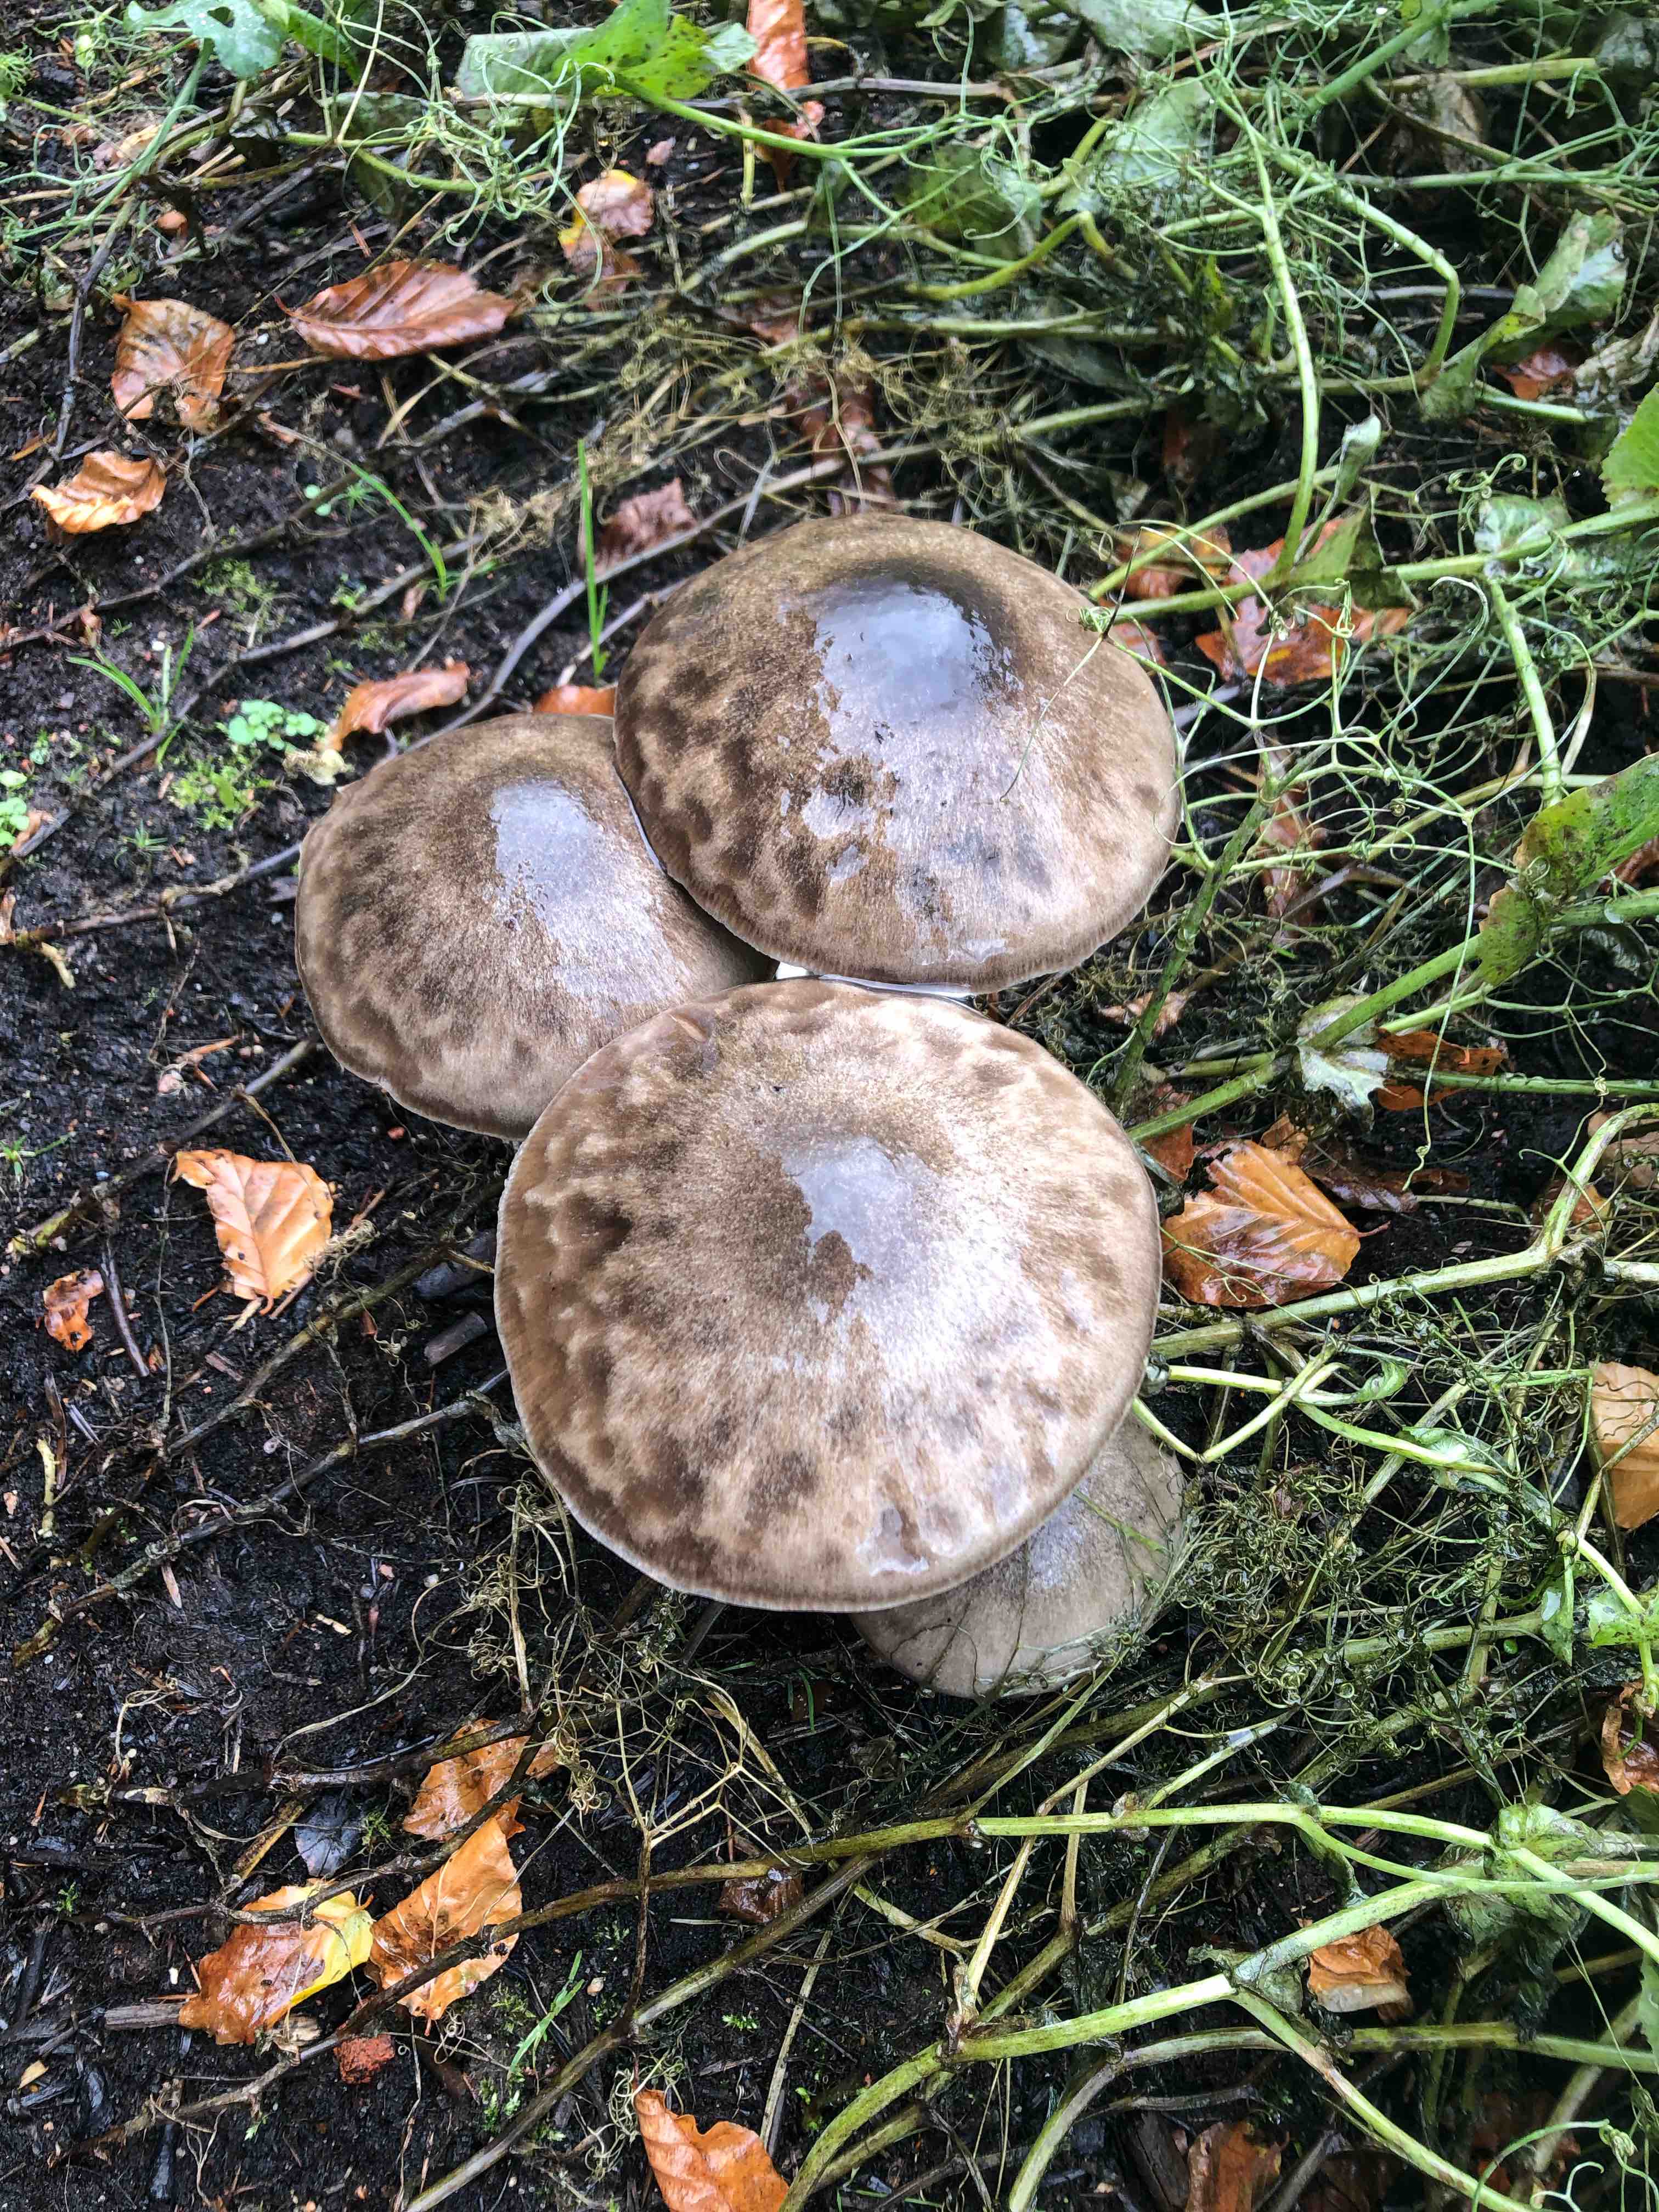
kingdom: Fungi
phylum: Basidiomycota
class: Agaricomycetes
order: Agaricales
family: Pluteaceae
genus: Volvopluteus
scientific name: Volvopluteus gloiocephalus
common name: høj posesvamp
